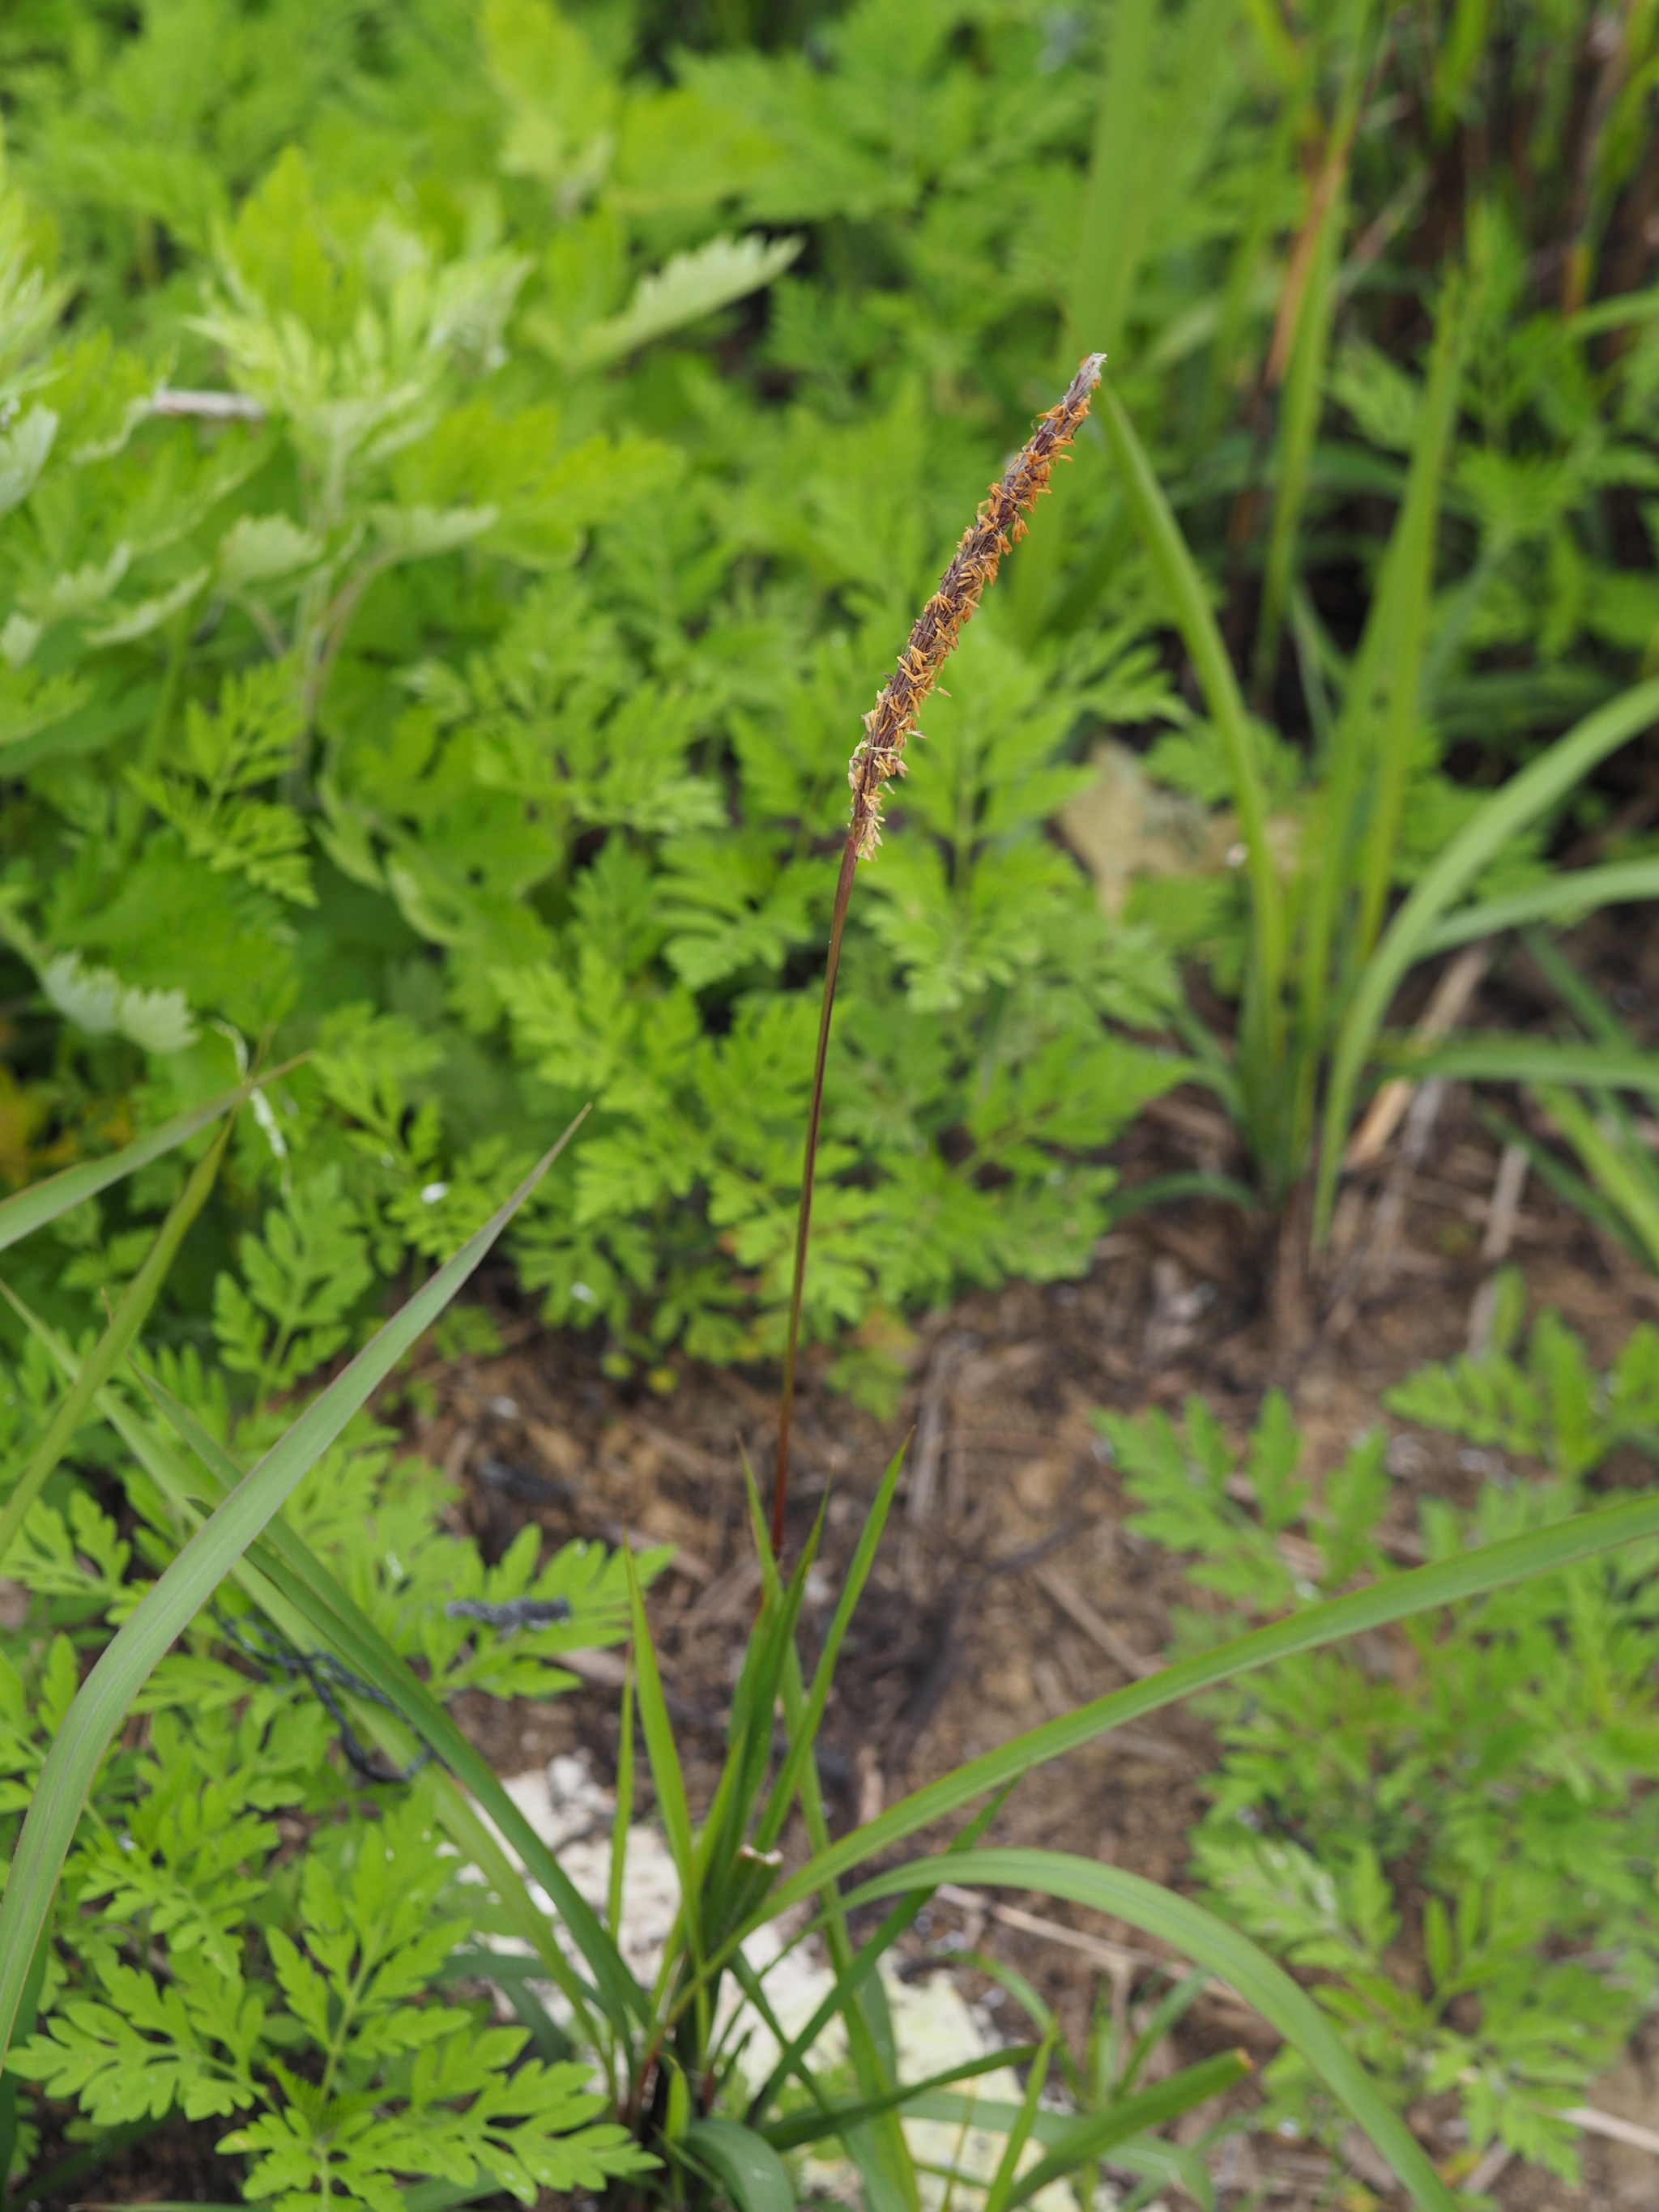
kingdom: Plantae
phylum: Tracheophyta
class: Liliopsida
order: Poales
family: Poaceae
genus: Imperata
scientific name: Imperata cylindrica
